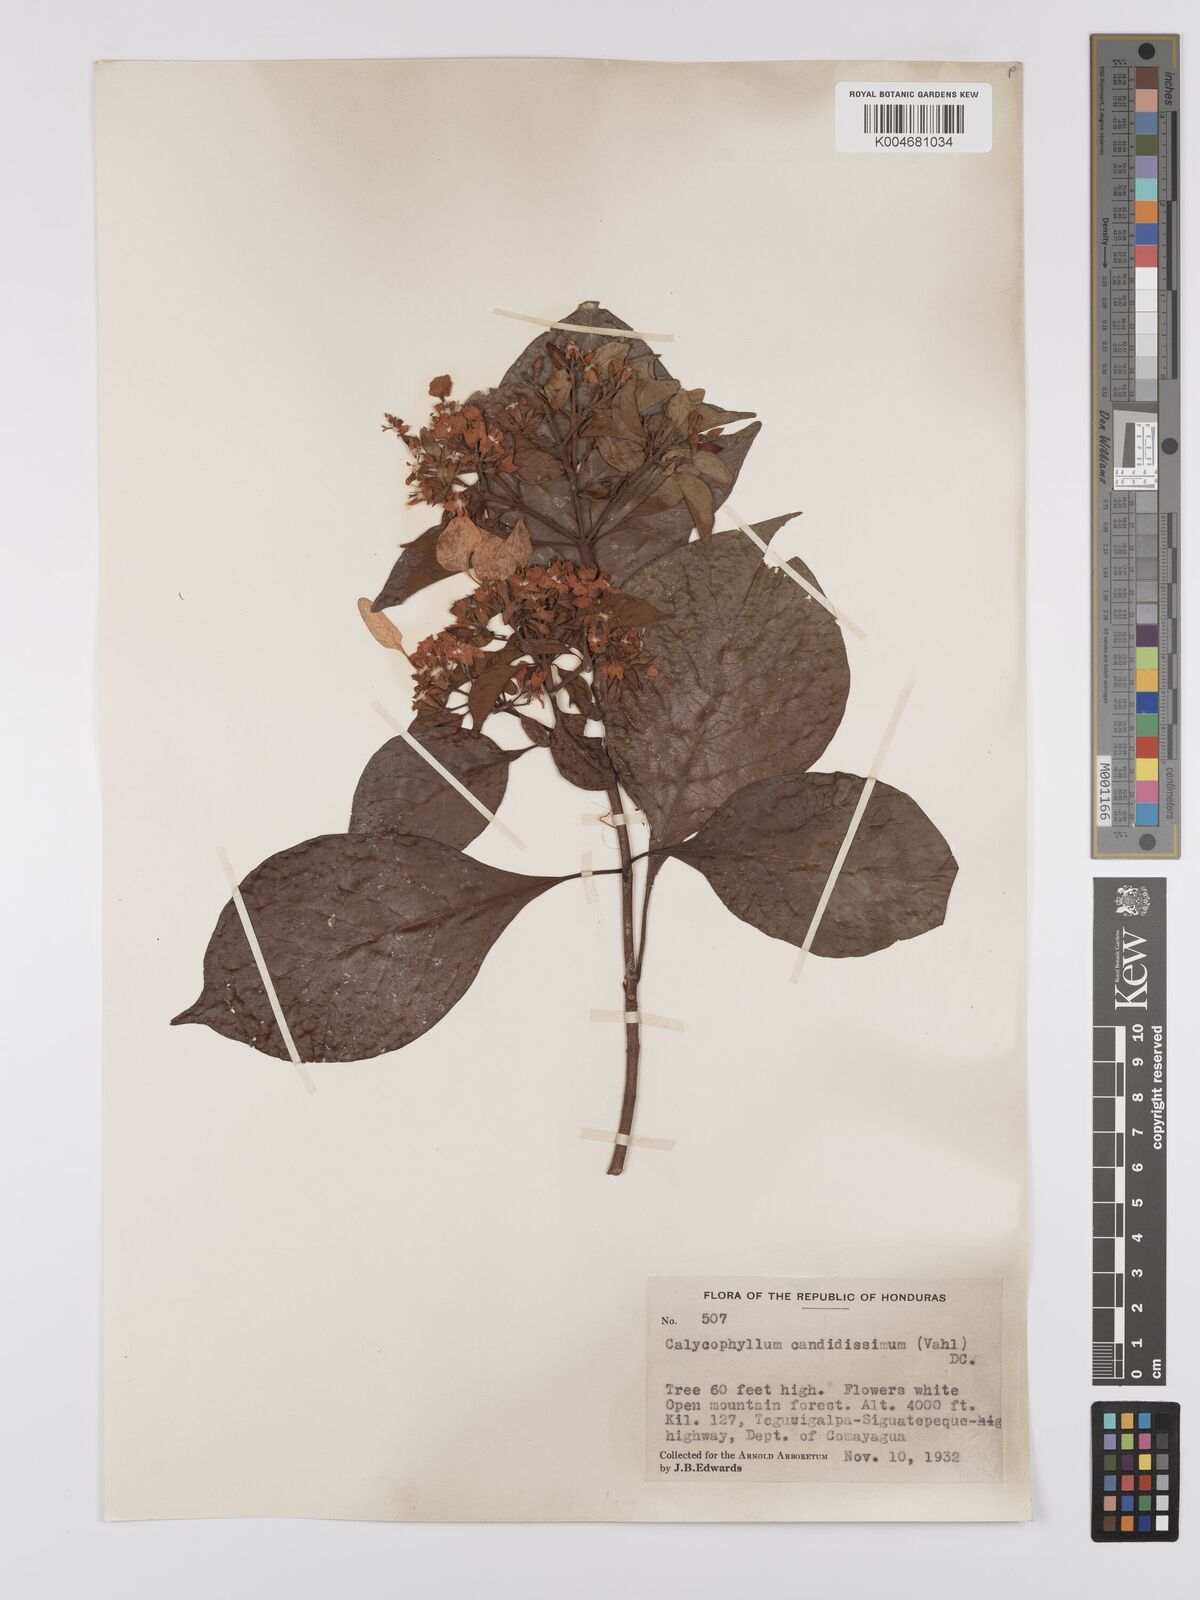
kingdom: Plantae
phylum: Tracheophyta
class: Magnoliopsida
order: Gentianales
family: Rubiaceae
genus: Calycophyllum
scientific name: Calycophyllum candidissimum
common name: Dagame
